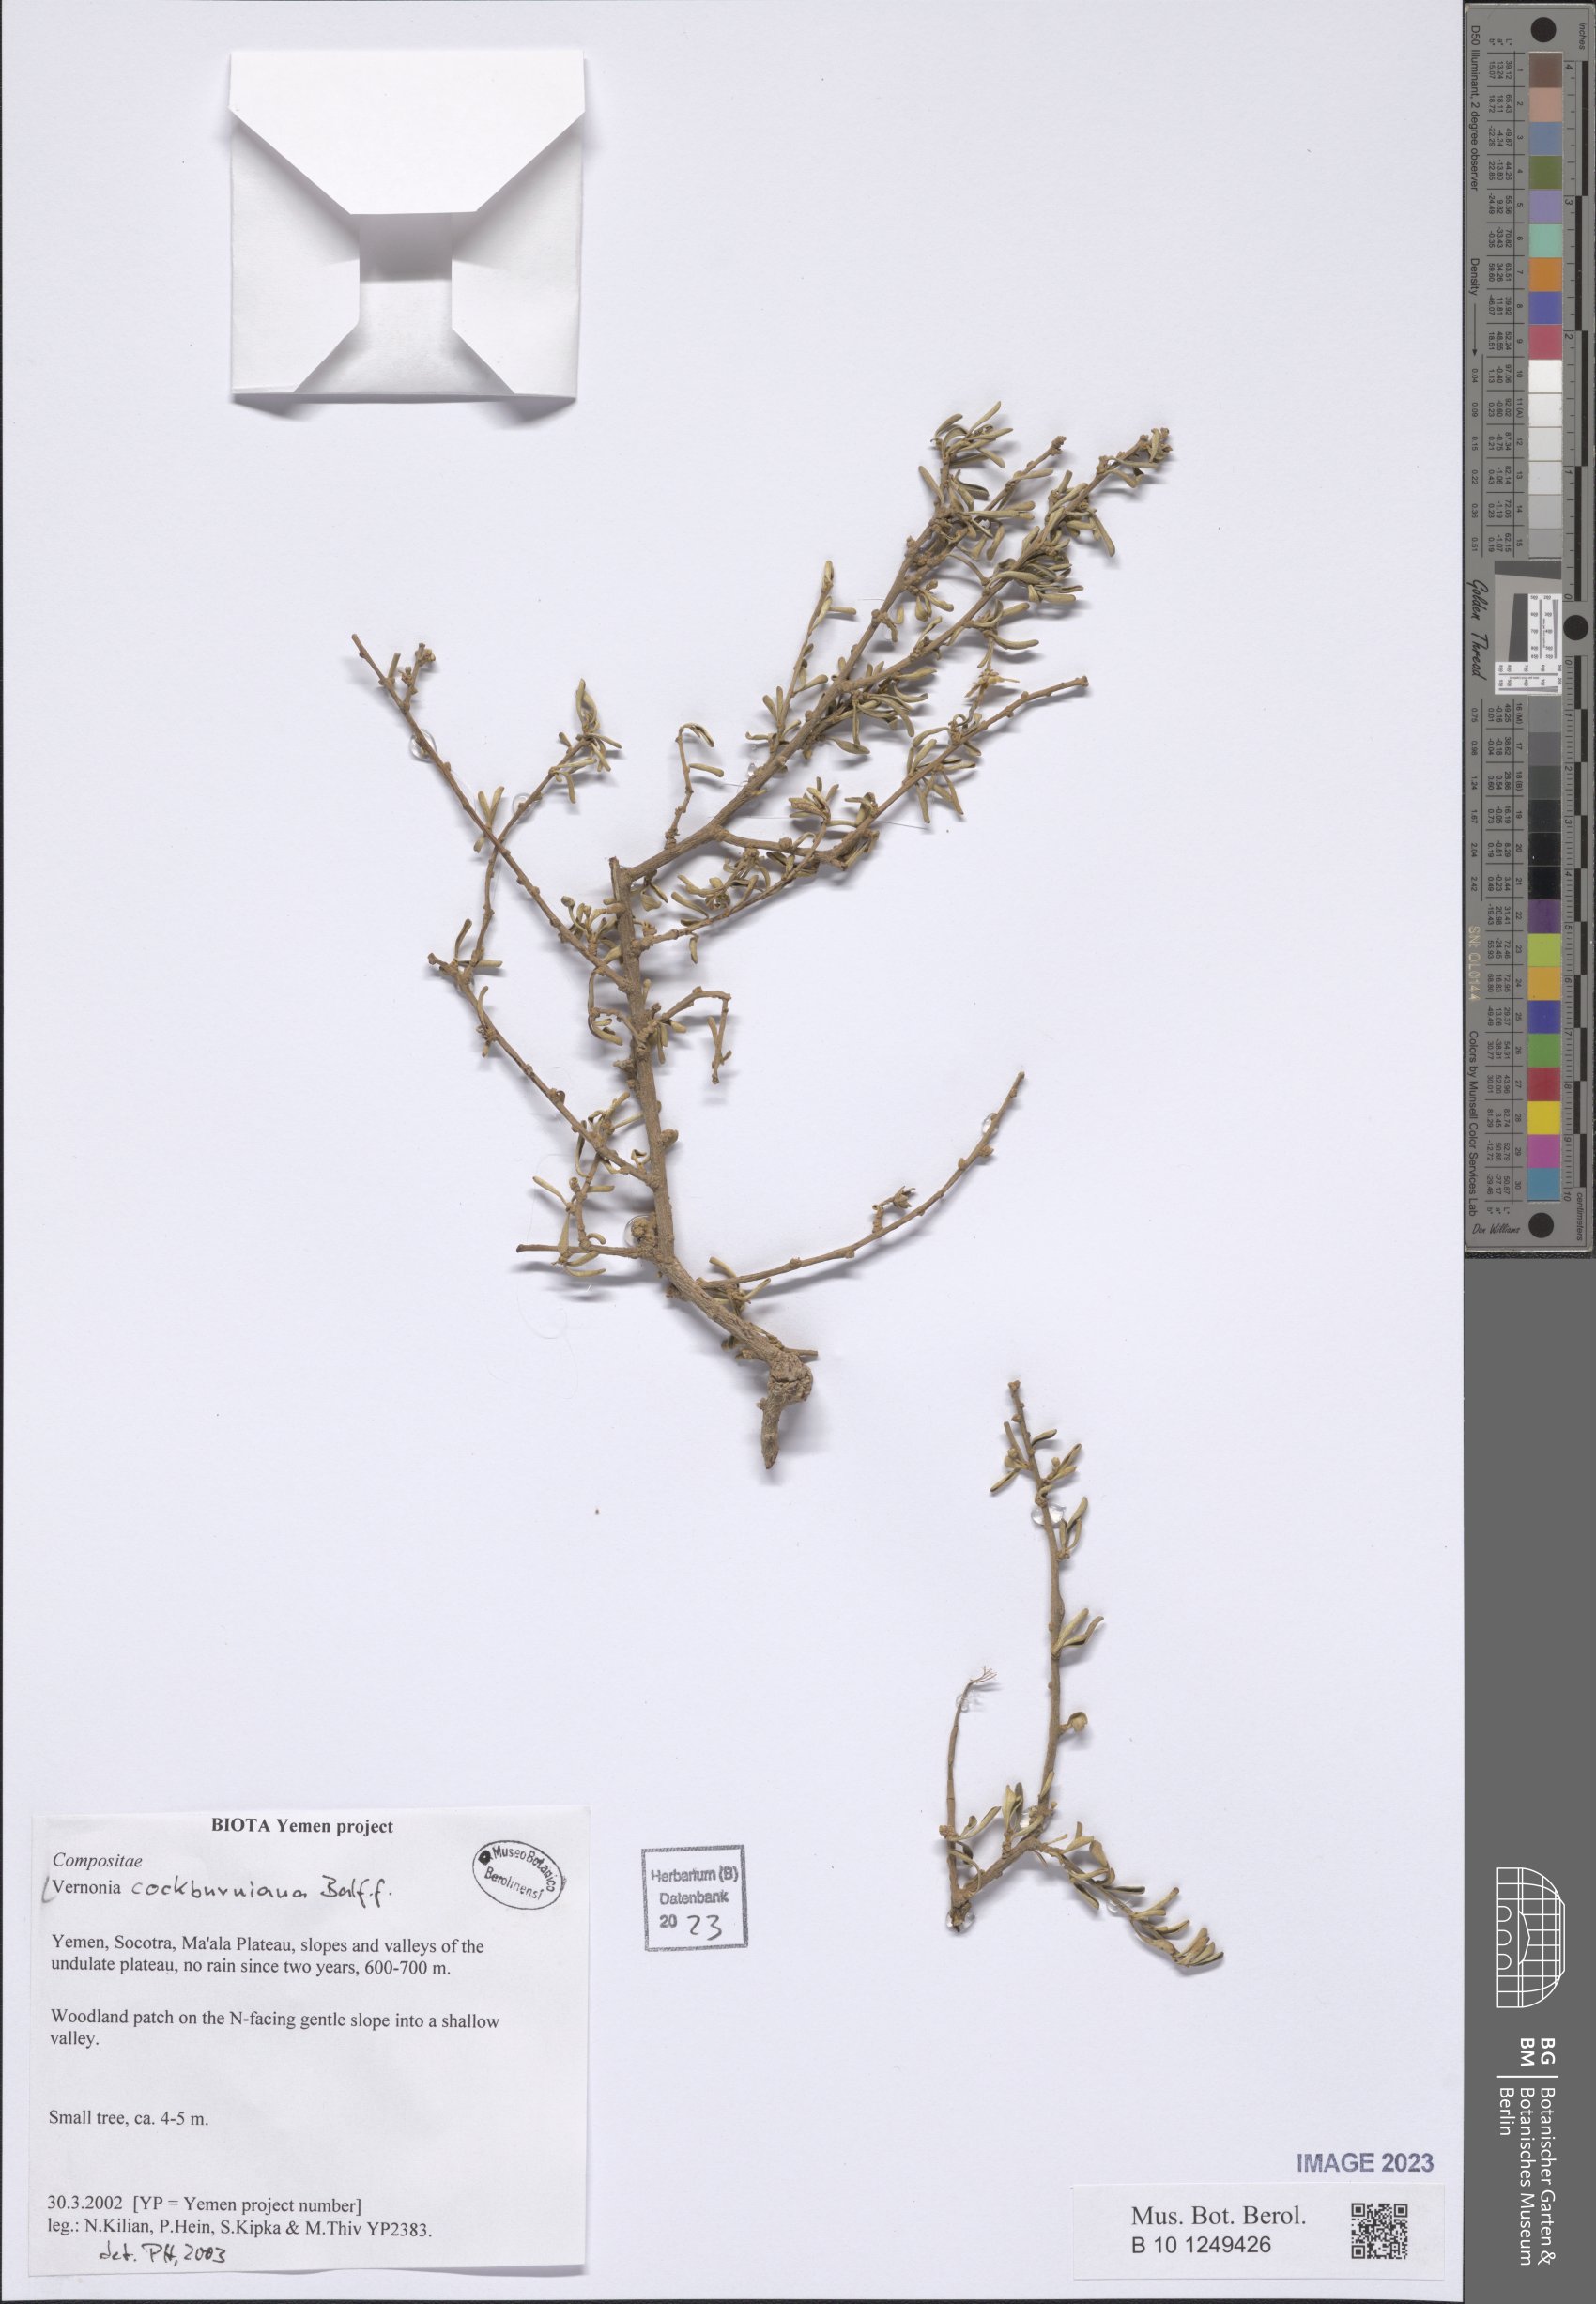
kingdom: Plantae
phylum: Tracheophyta
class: Magnoliopsida
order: Asterales
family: Asteraceae
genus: Vernonia
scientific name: Vernonia cockburniana
